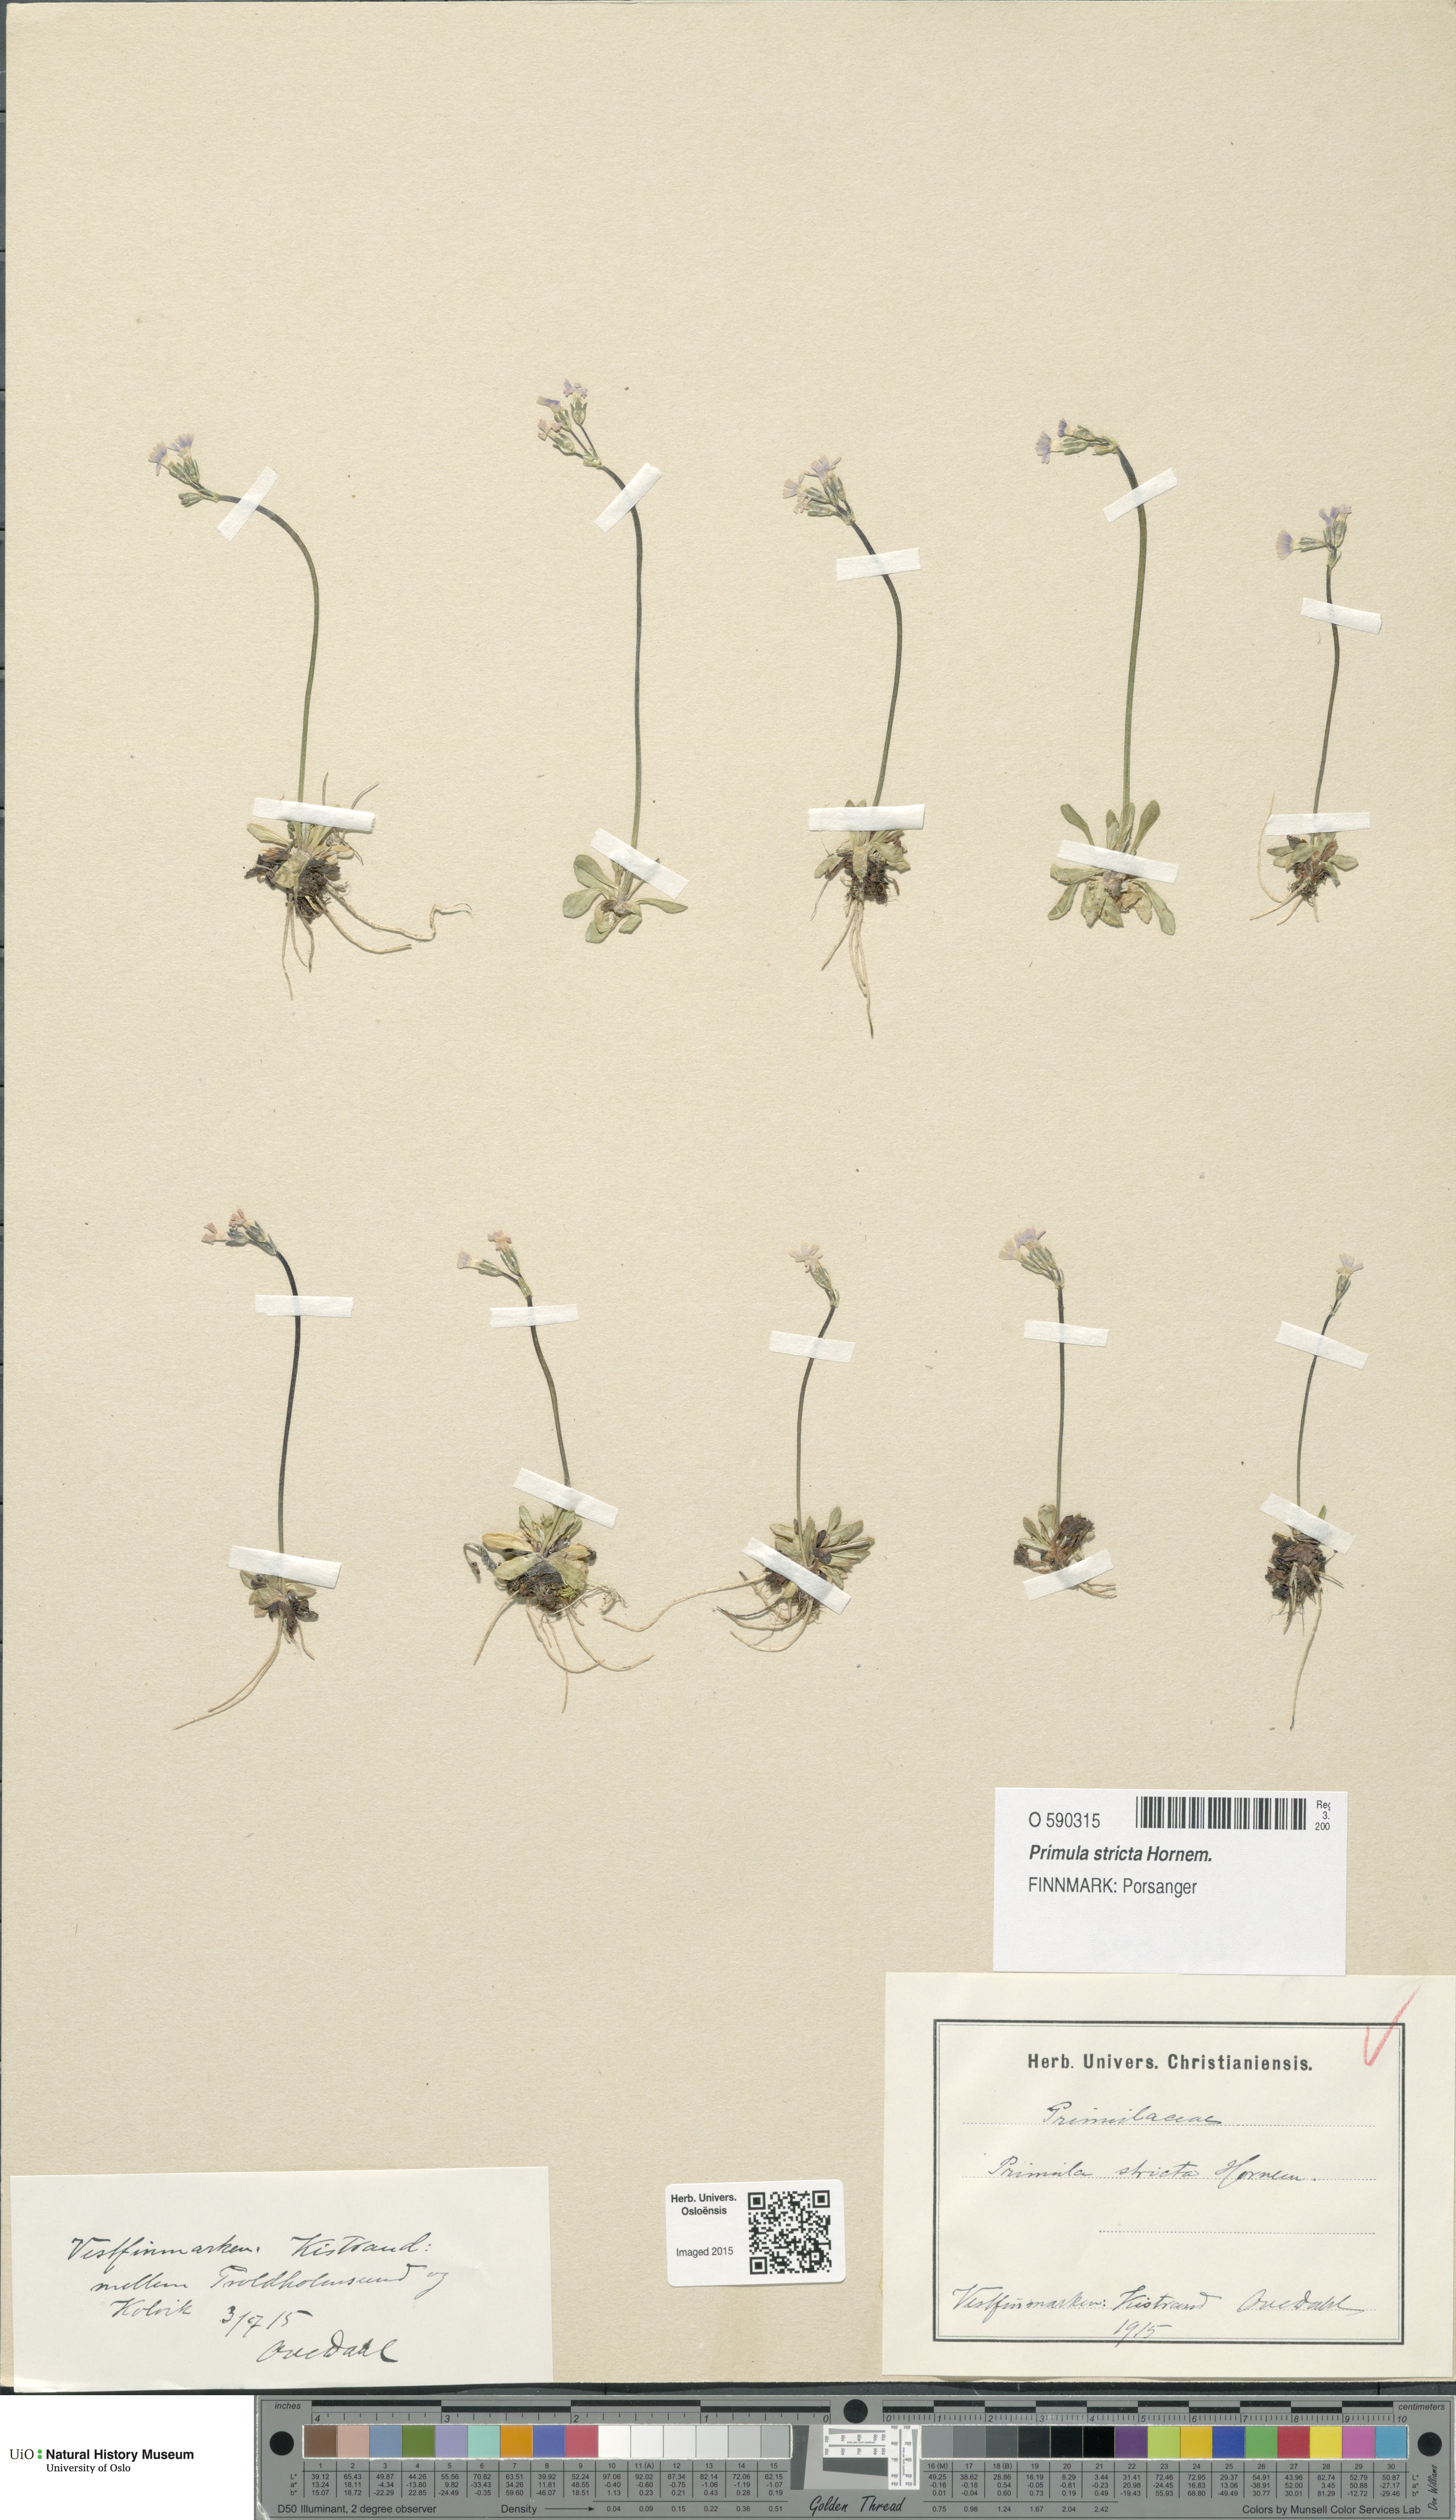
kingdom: Plantae
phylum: Tracheophyta
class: Magnoliopsida
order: Ericales
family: Primulaceae
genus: Primula
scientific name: Primula stricta
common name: Coastal primrose
